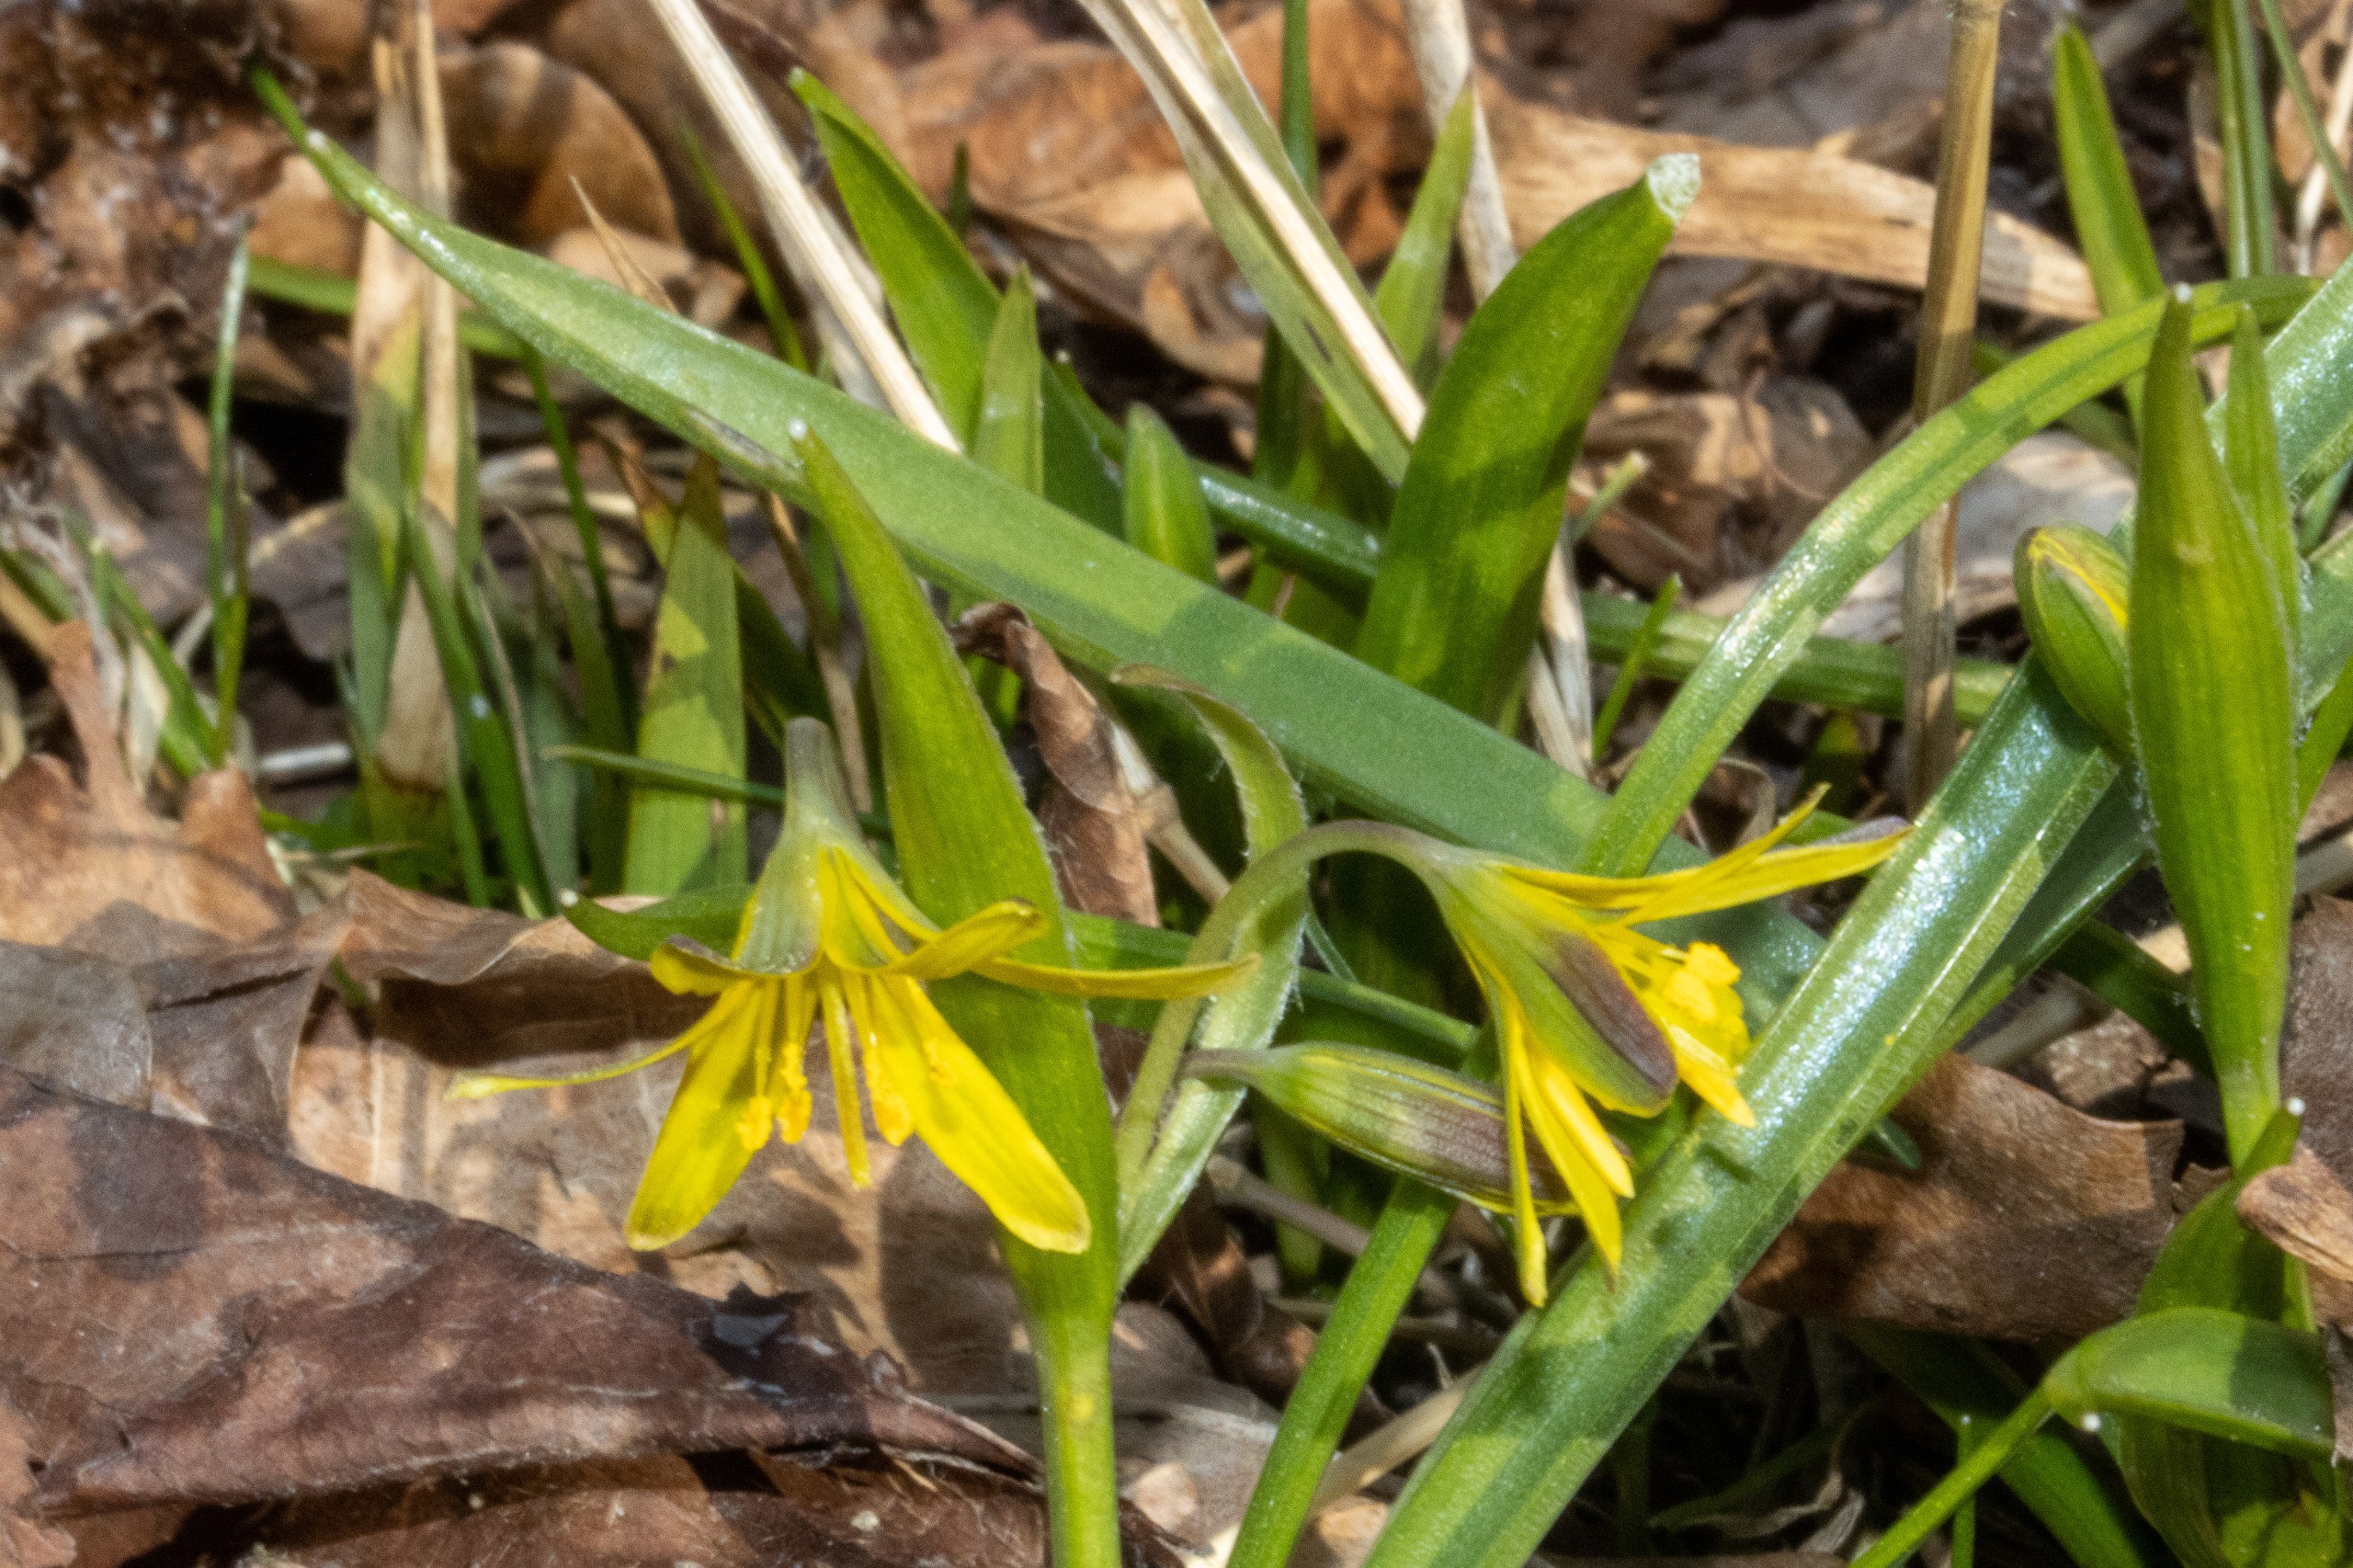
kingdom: Plantae
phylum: Tracheophyta
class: Liliopsida
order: Liliales
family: Liliaceae
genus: Gagea
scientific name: Gagea lutea
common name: Almindelig guldstjerne
